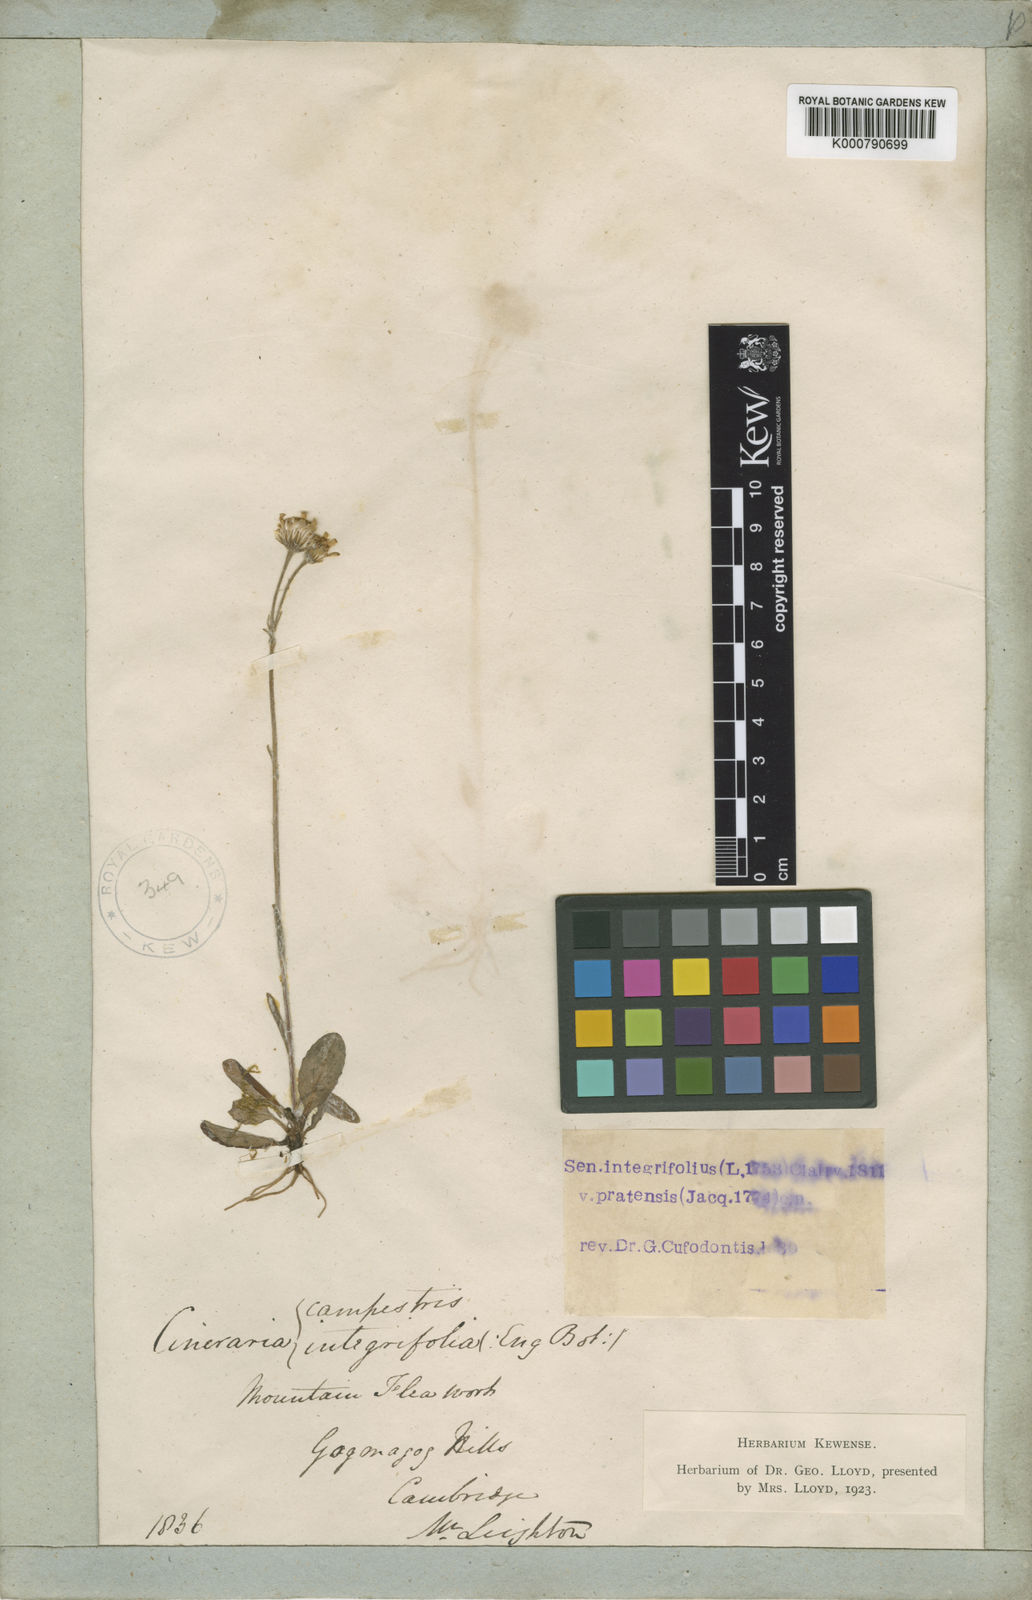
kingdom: Plantae
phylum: Tracheophyta
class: Magnoliopsida
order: Asterales
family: Asteraceae
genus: Tephroseris
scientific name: Tephroseris integrifolia
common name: Field fleawort
